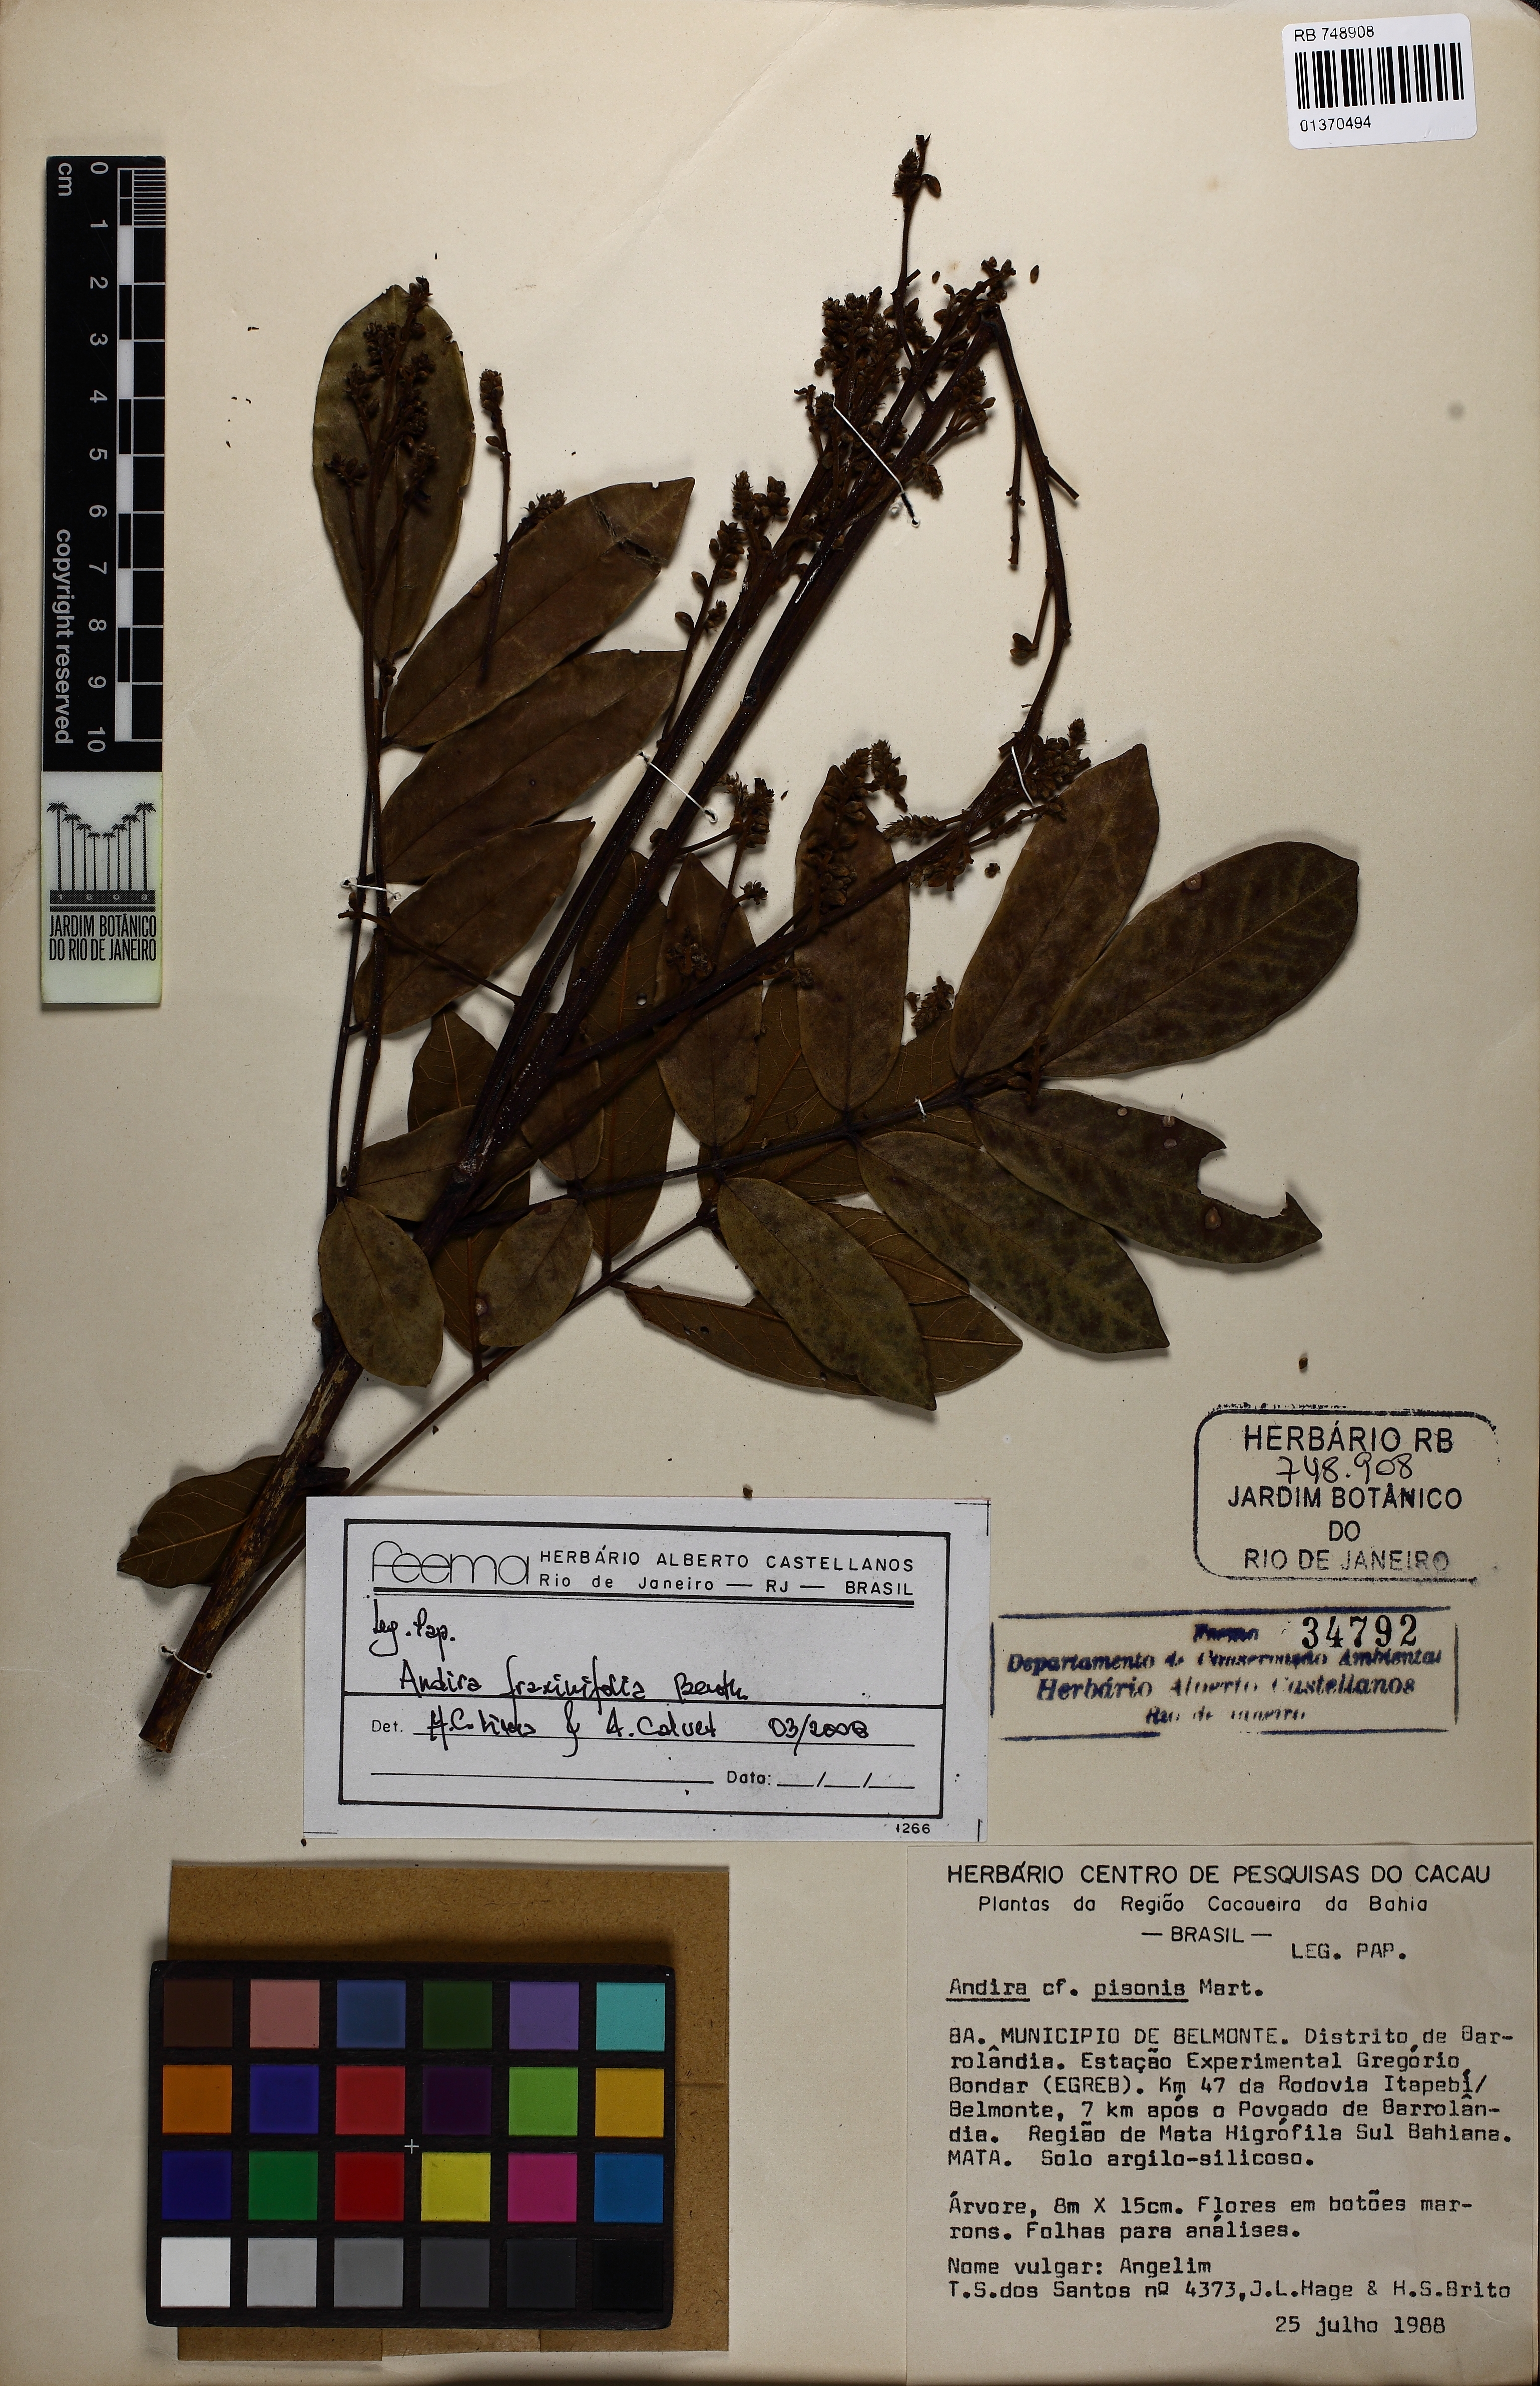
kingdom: Plantae
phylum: Tracheophyta
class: Magnoliopsida
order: Fabales
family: Fabaceae
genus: Andira
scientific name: Andira fraxinifolia
